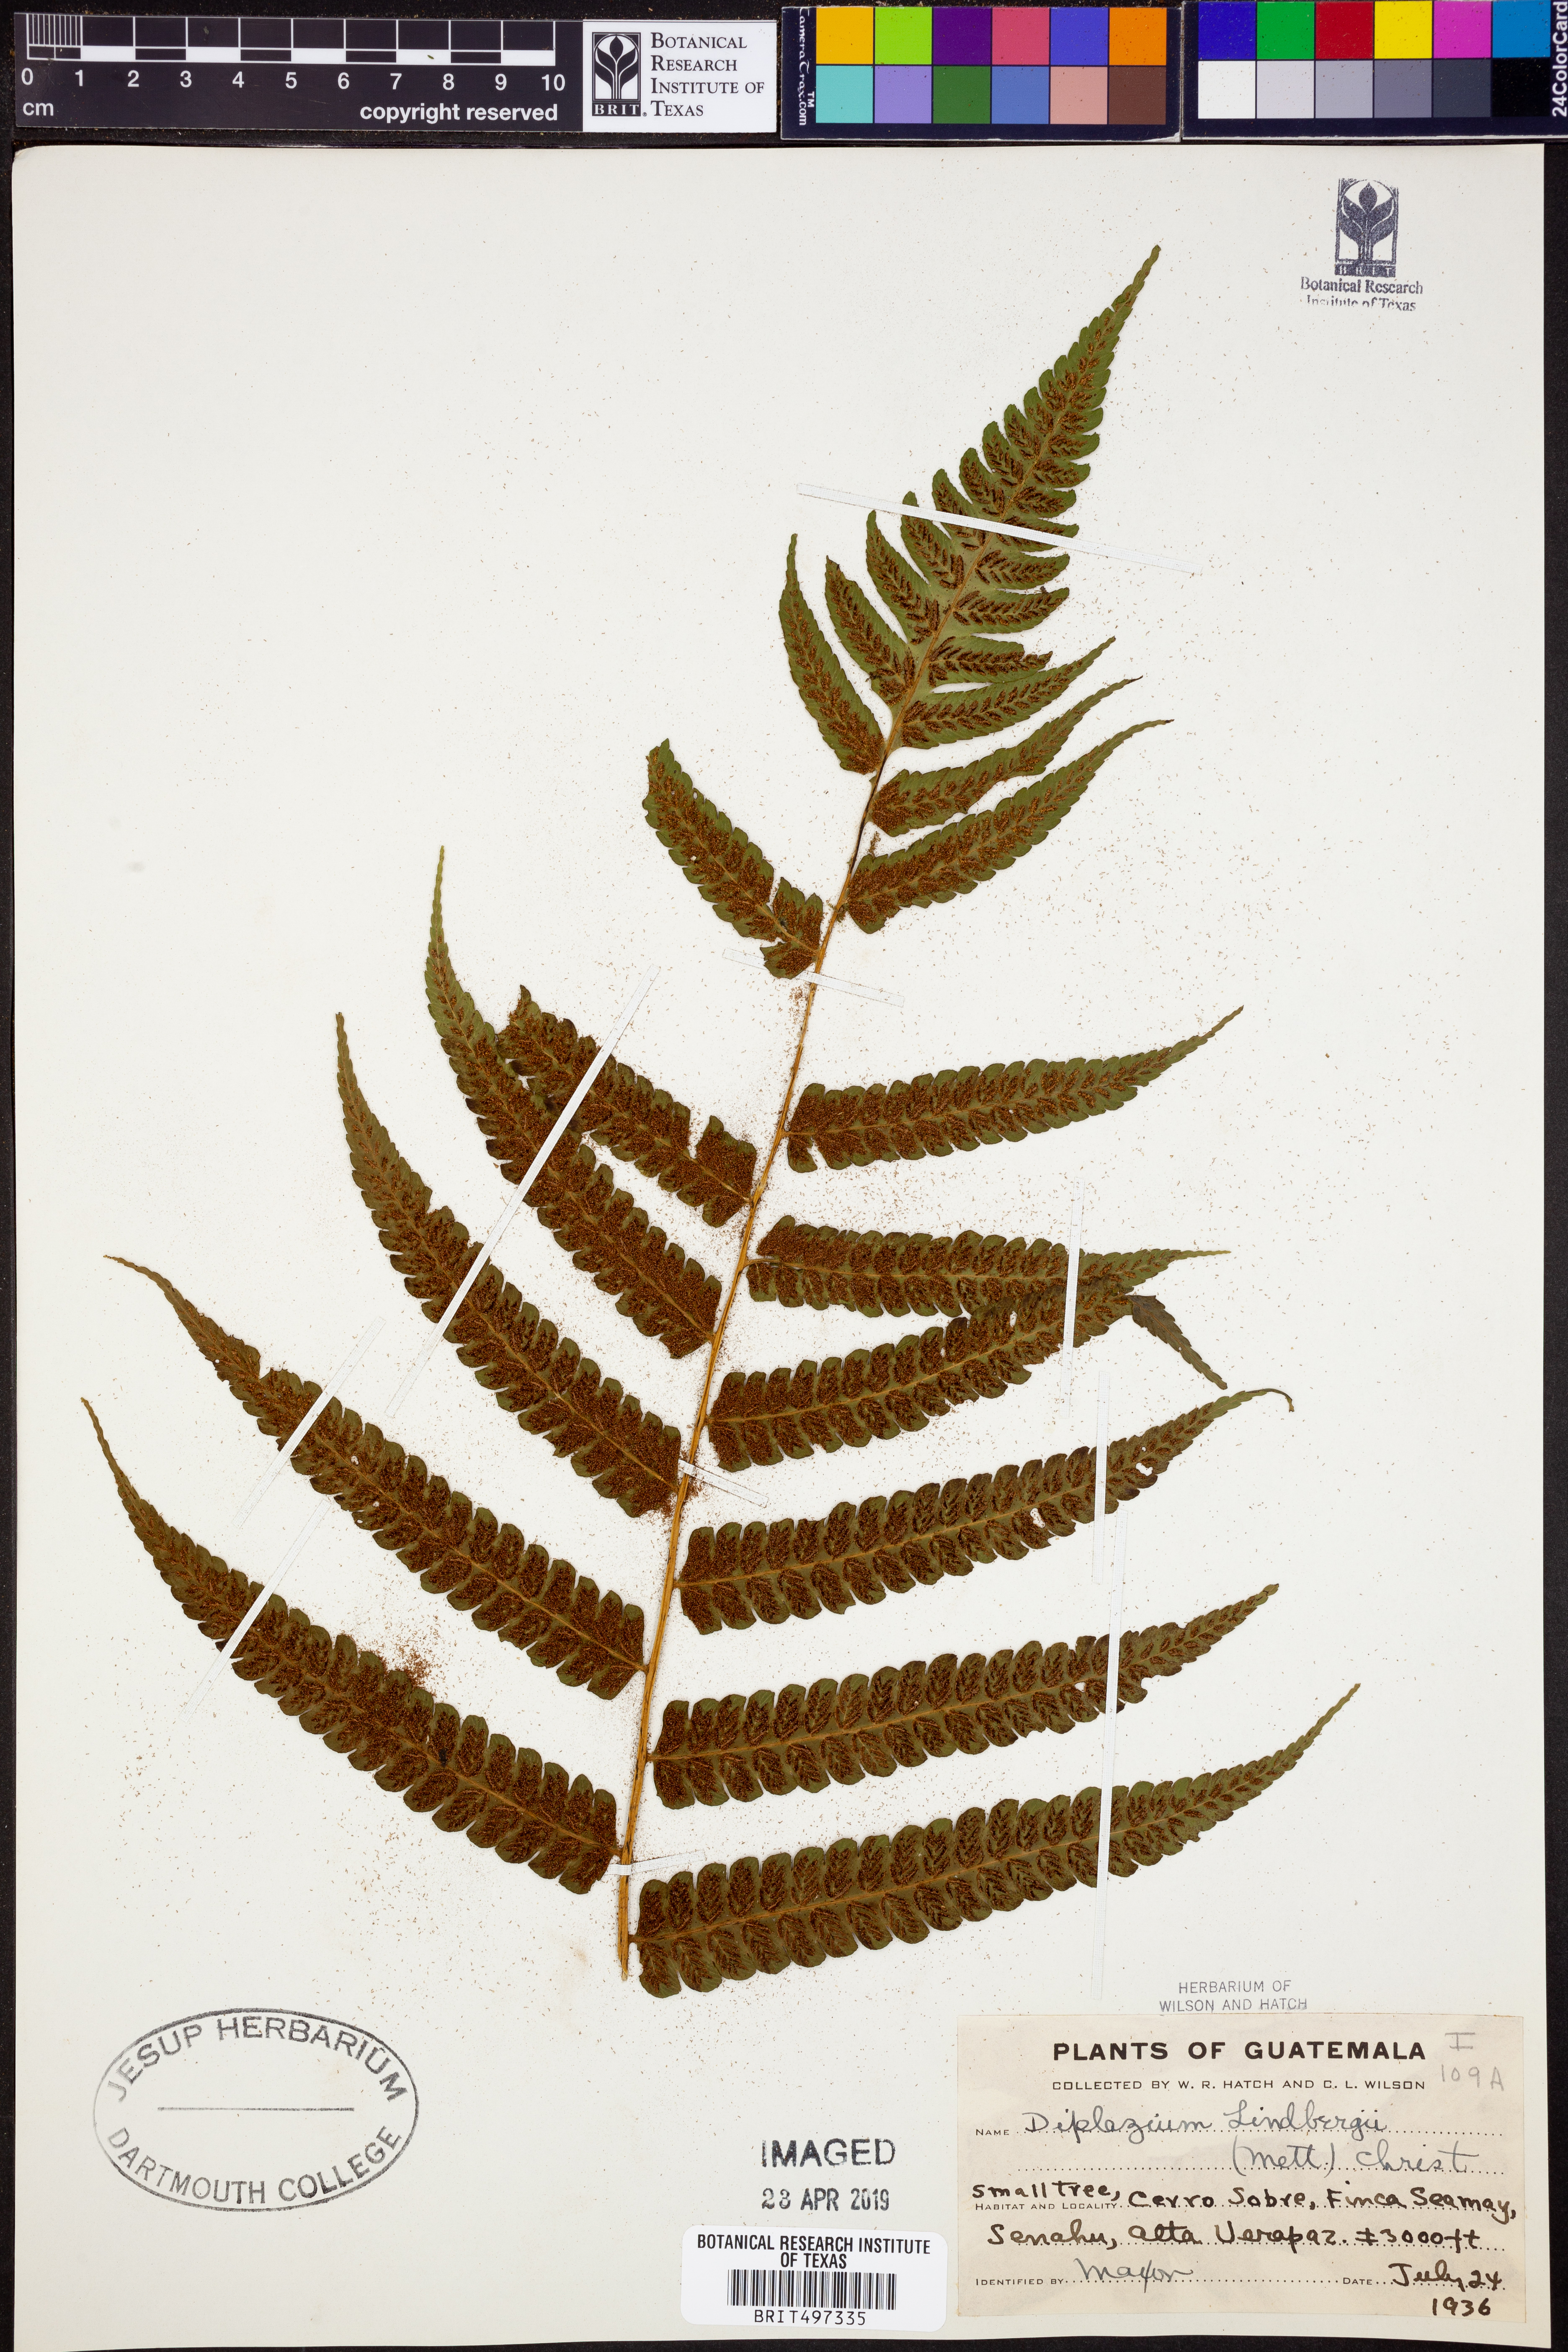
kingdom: Plantae
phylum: Tracheophyta
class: Polypodiopsida
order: Polypodiales
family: Athyriaceae
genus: Diplazium
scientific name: Diplazium lindbergii
